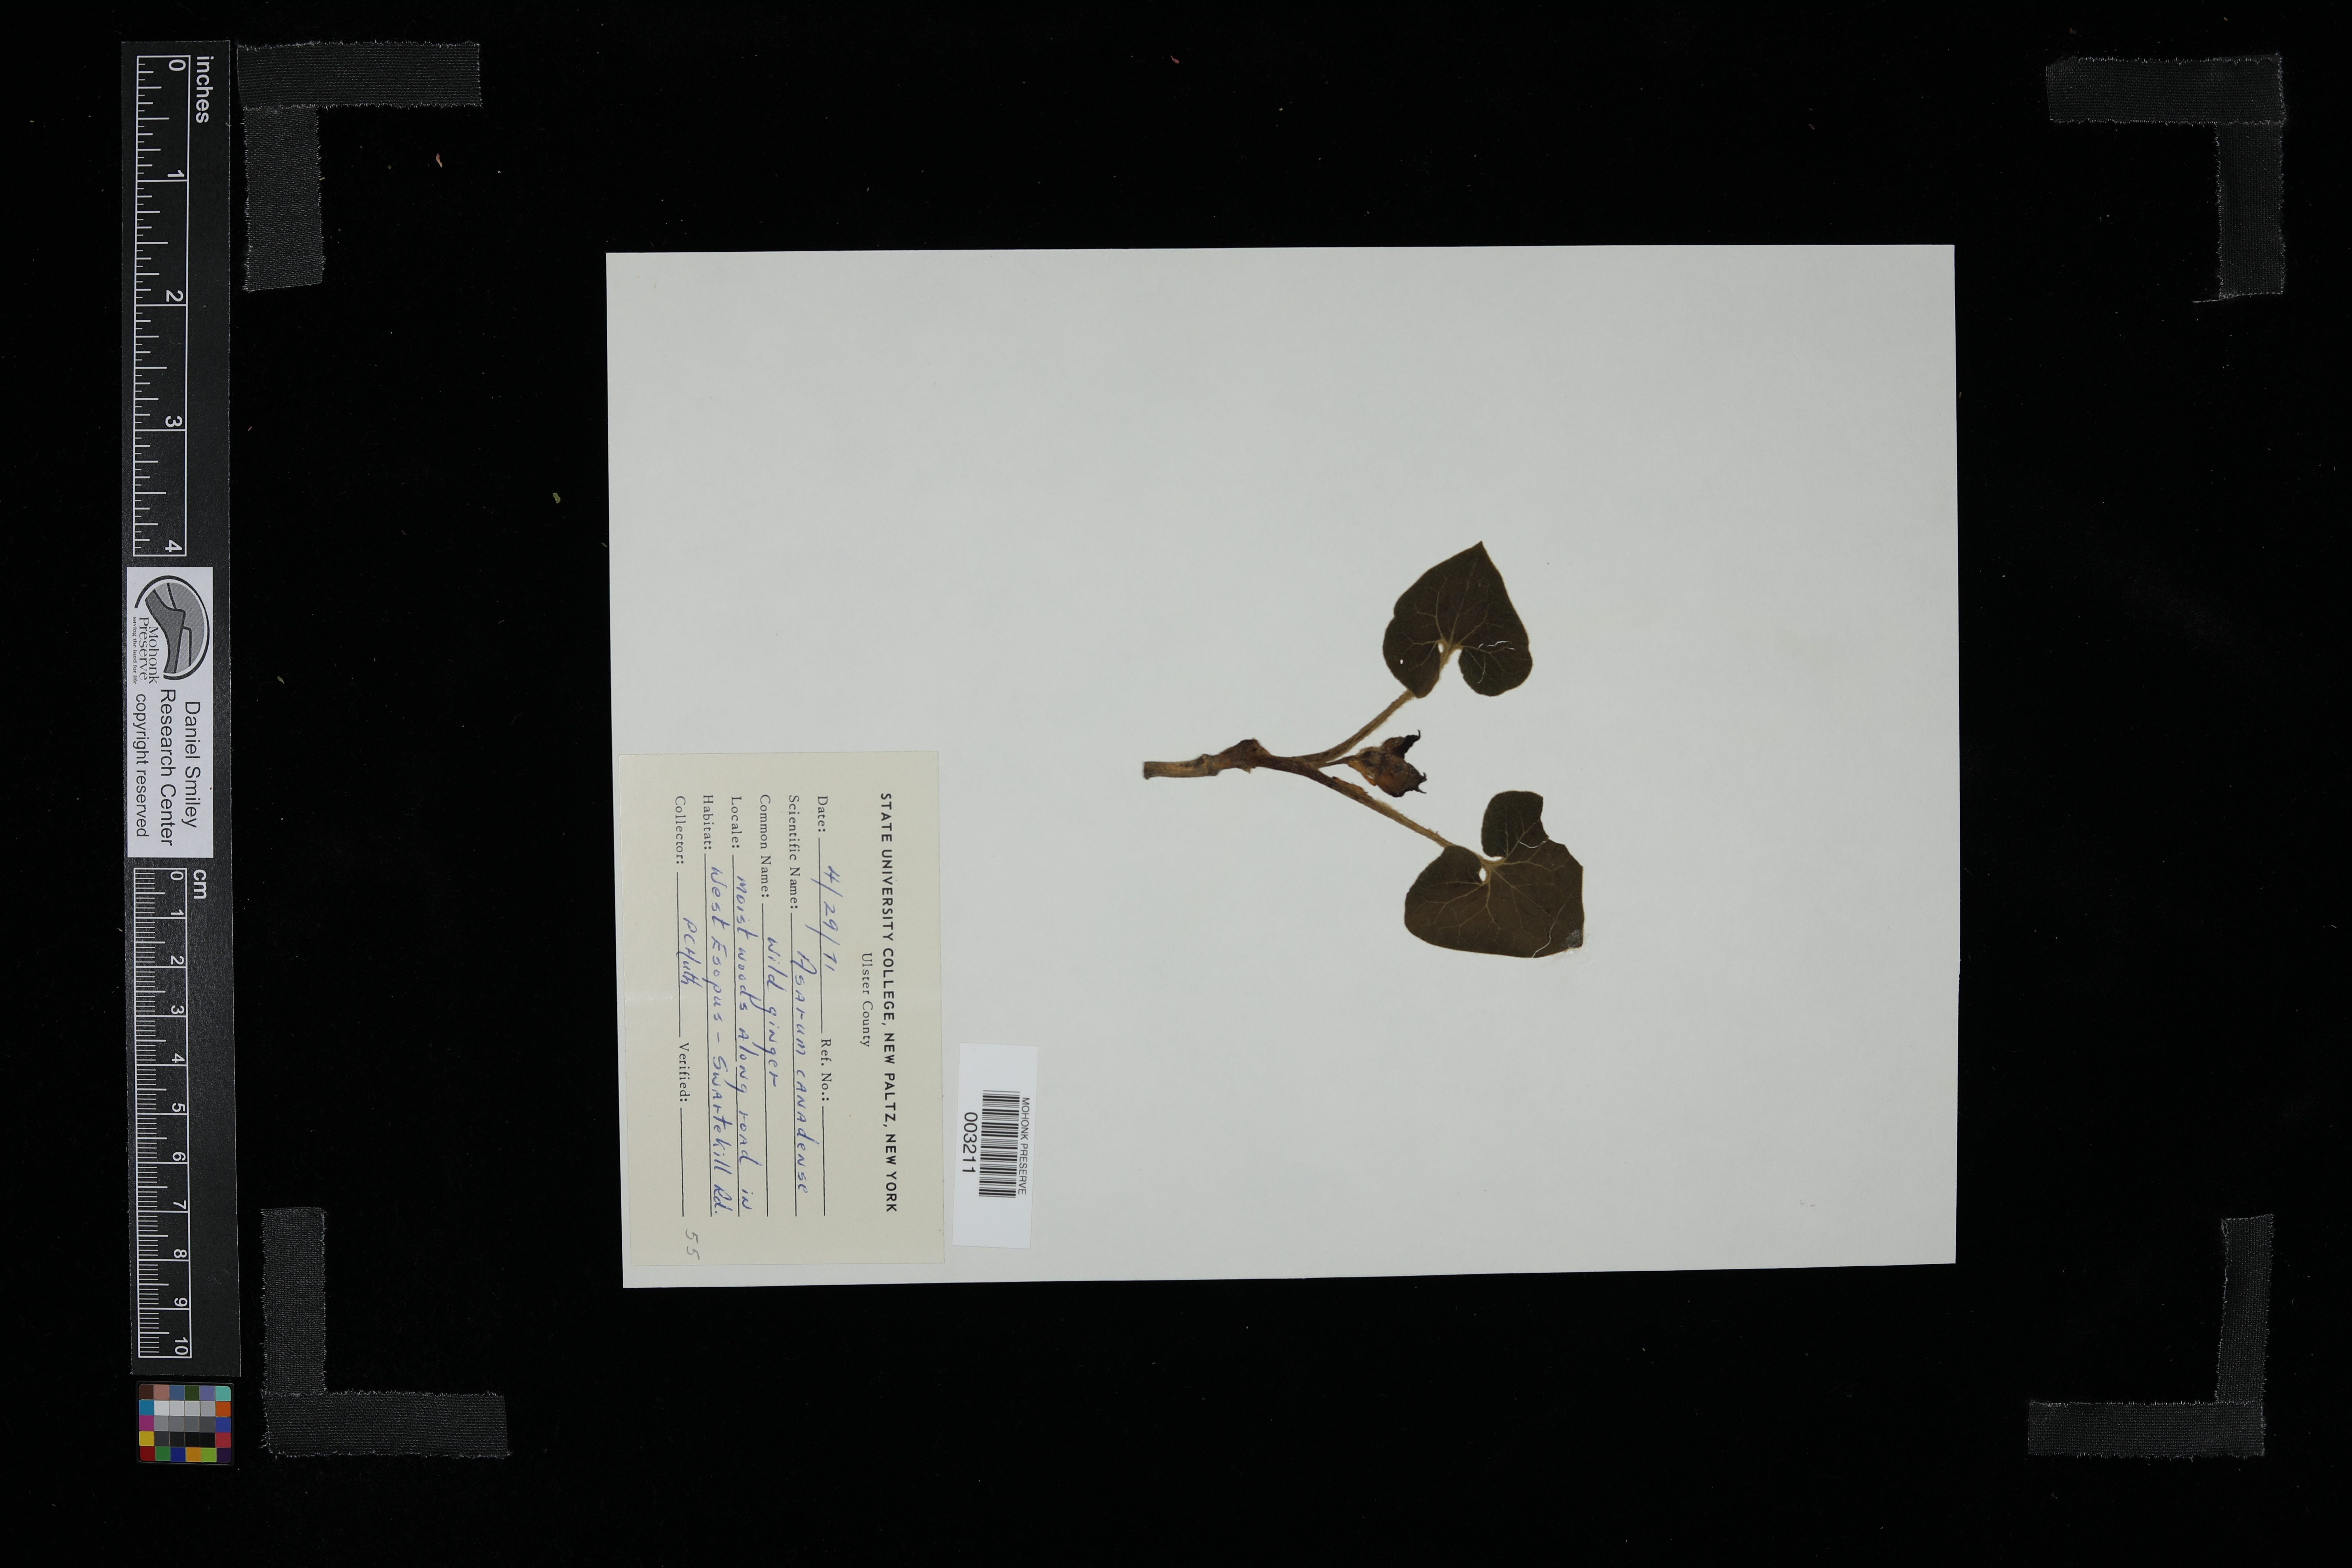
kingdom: Plantae
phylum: Tracheophyta
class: Magnoliopsida
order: Piperales
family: Aristolochiaceae
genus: Asarum
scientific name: Asarum canadense
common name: Wild ginger
